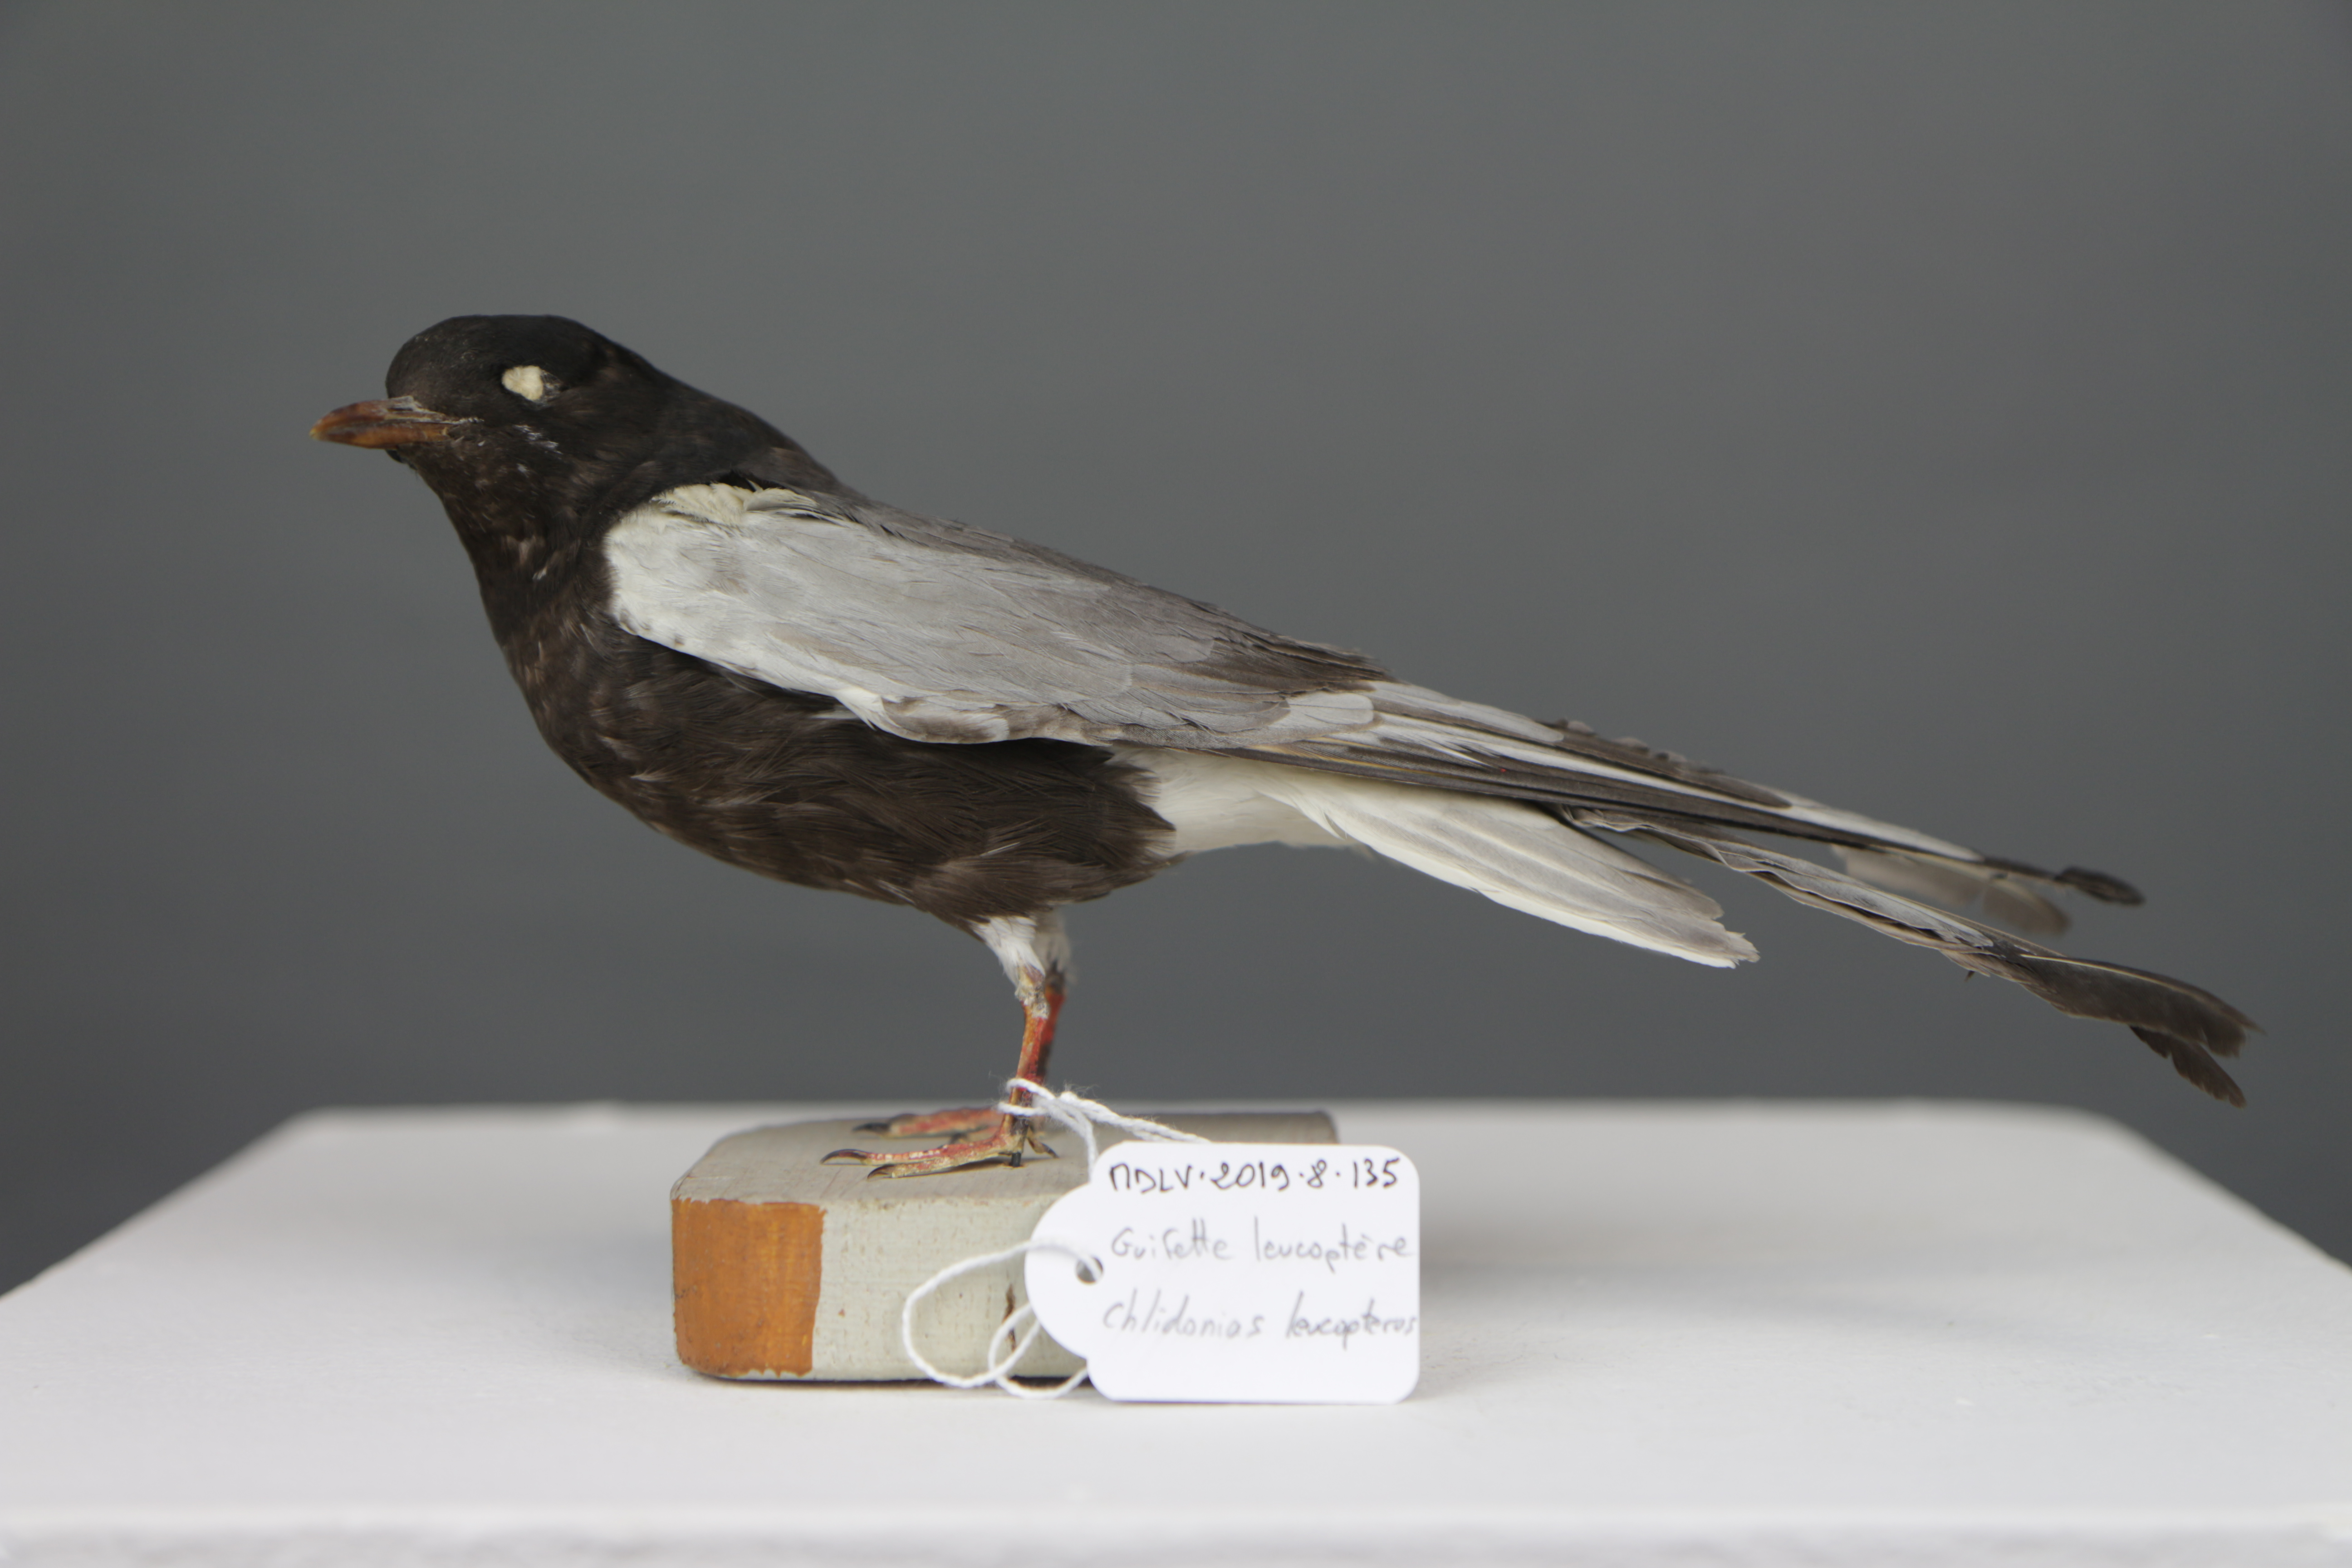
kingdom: Animalia
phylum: Chordata
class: Aves
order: Charadriiformes
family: Laridae
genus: Chlidonias
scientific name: Chlidonias leucopterus
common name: White-winged tern
